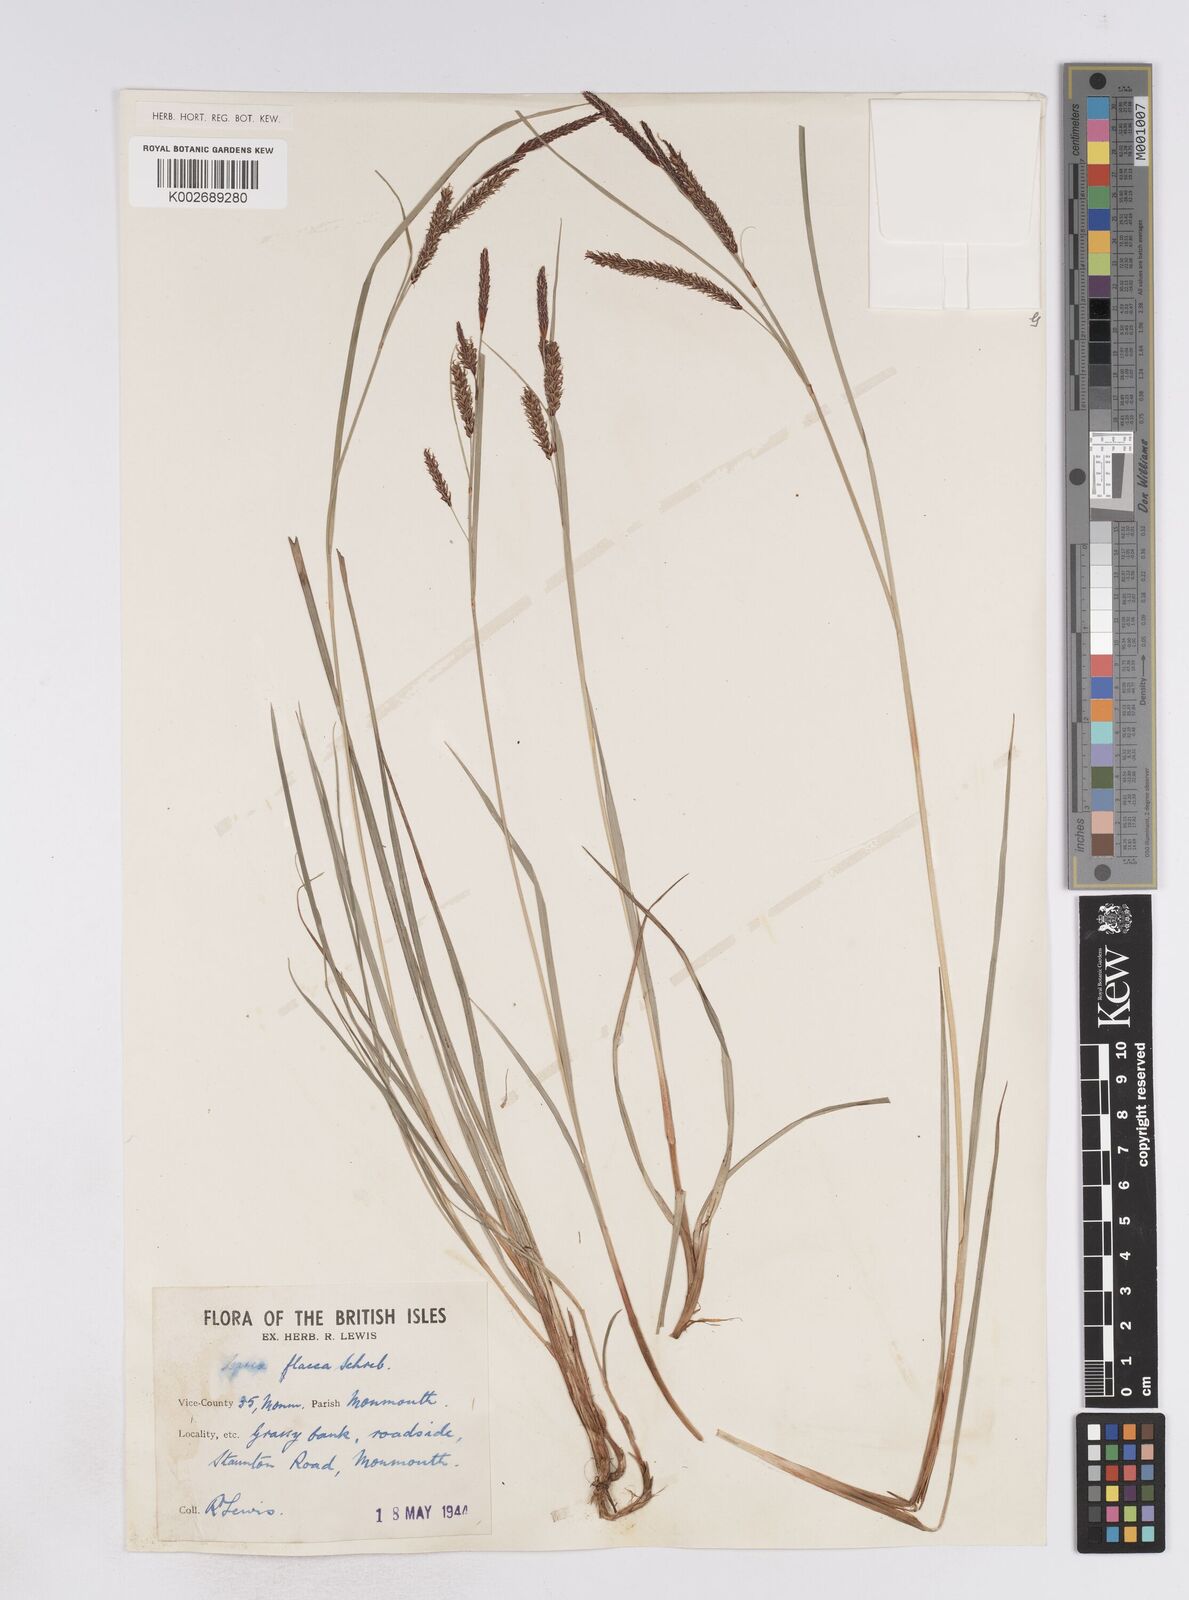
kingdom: Plantae
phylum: Tracheophyta
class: Liliopsida
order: Poales
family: Cyperaceae
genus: Carex
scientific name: Carex flacca
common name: Glaucous sedge
